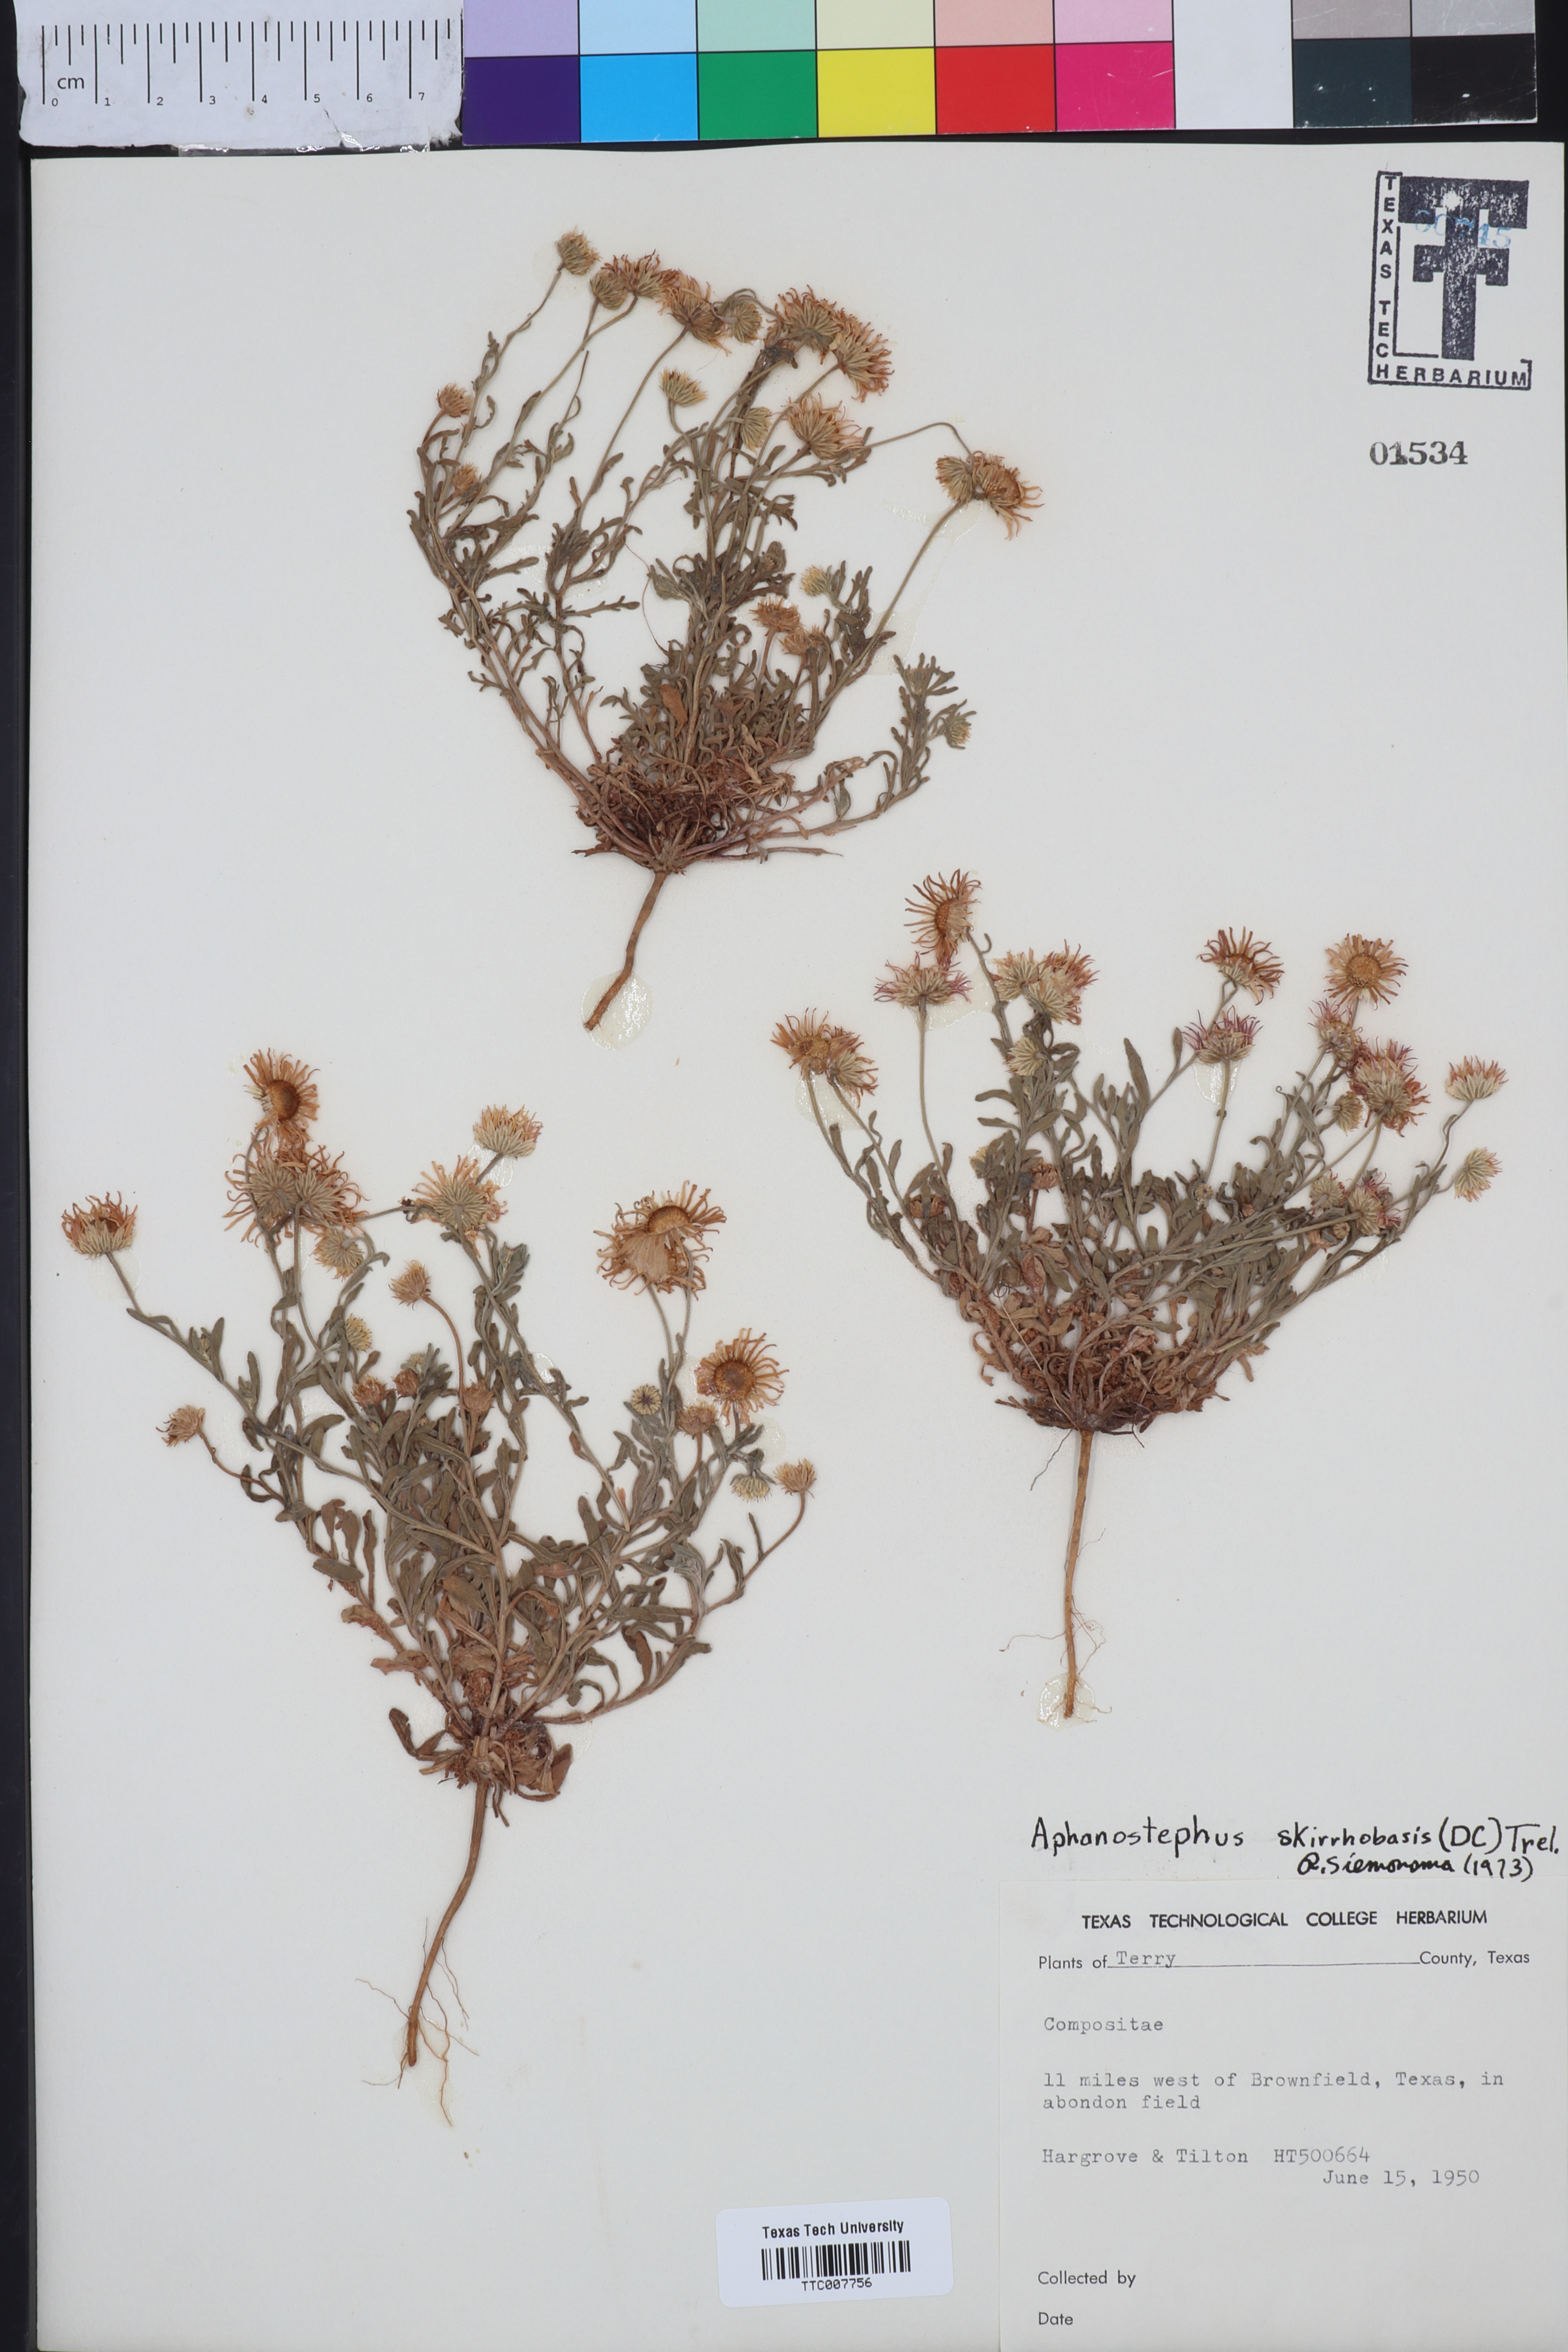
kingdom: Plantae
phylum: Tracheophyta
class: Magnoliopsida
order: Asterales
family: Asteraceae
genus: Aphanostephus
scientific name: Aphanostephus skirrhobasis
